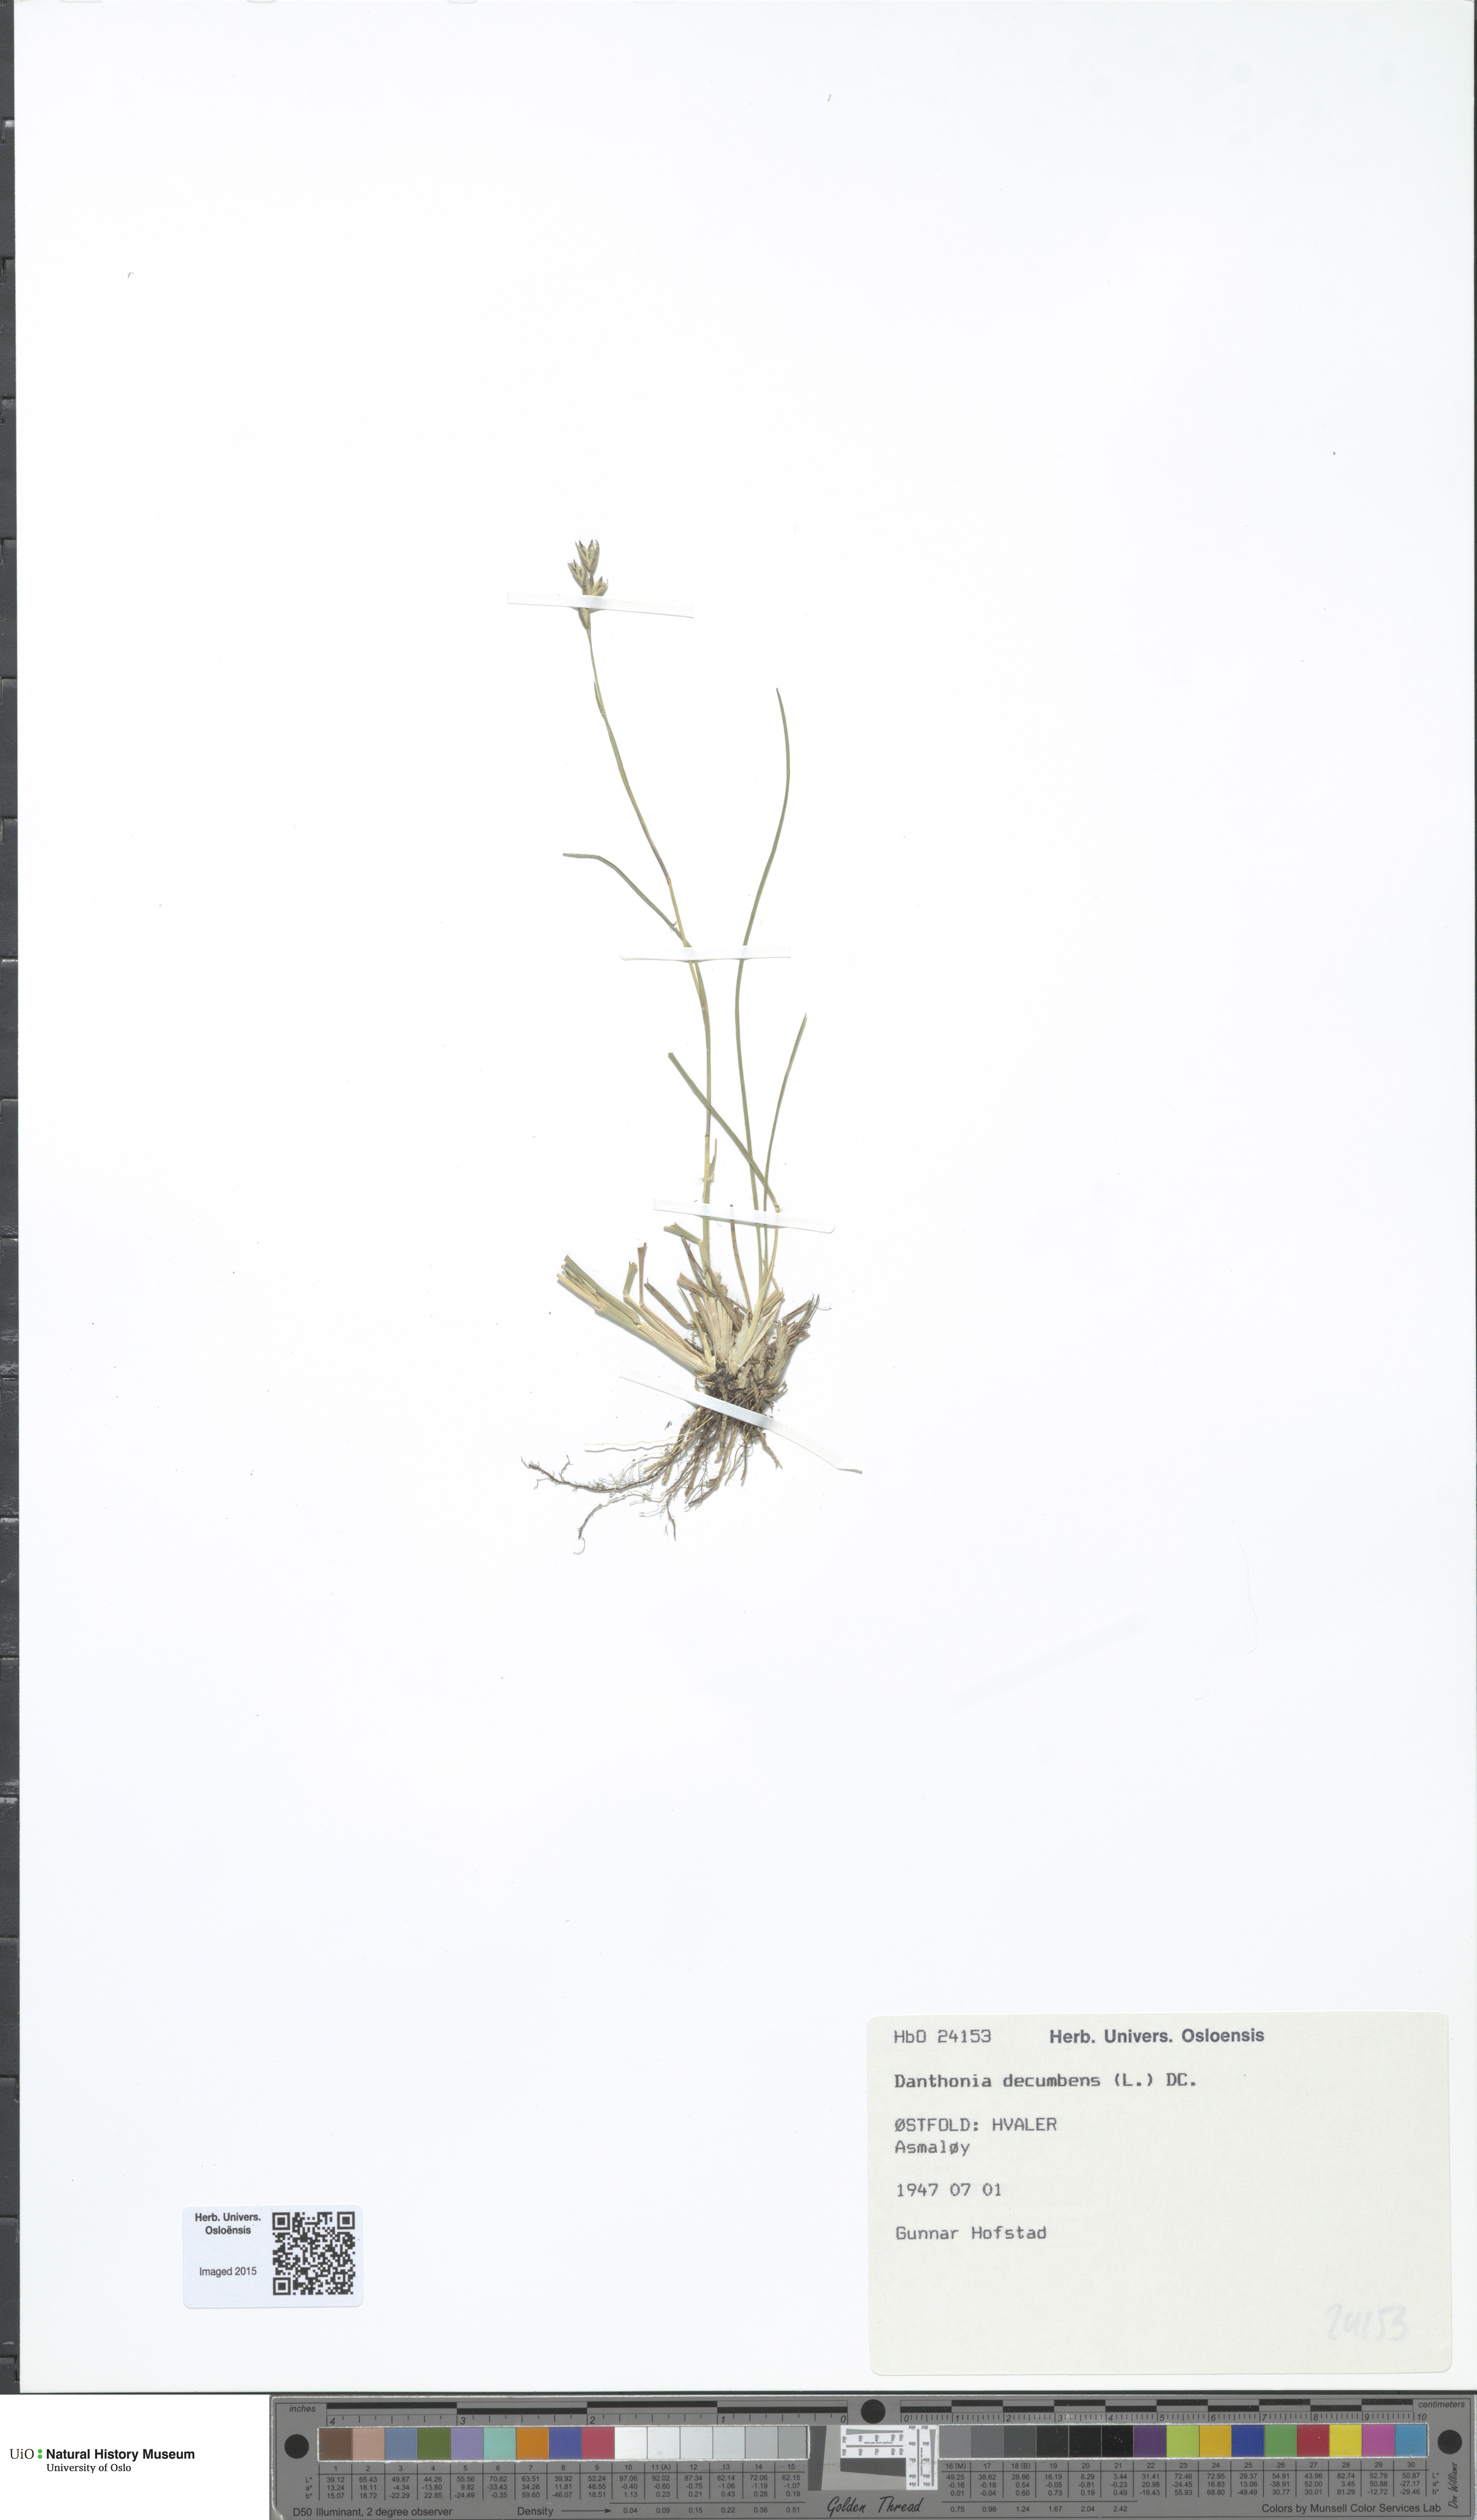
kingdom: Plantae
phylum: Tracheophyta
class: Liliopsida
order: Poales
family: Poaceae
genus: Danthonia
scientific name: Danthonia decumbens
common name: Common heathgrass
